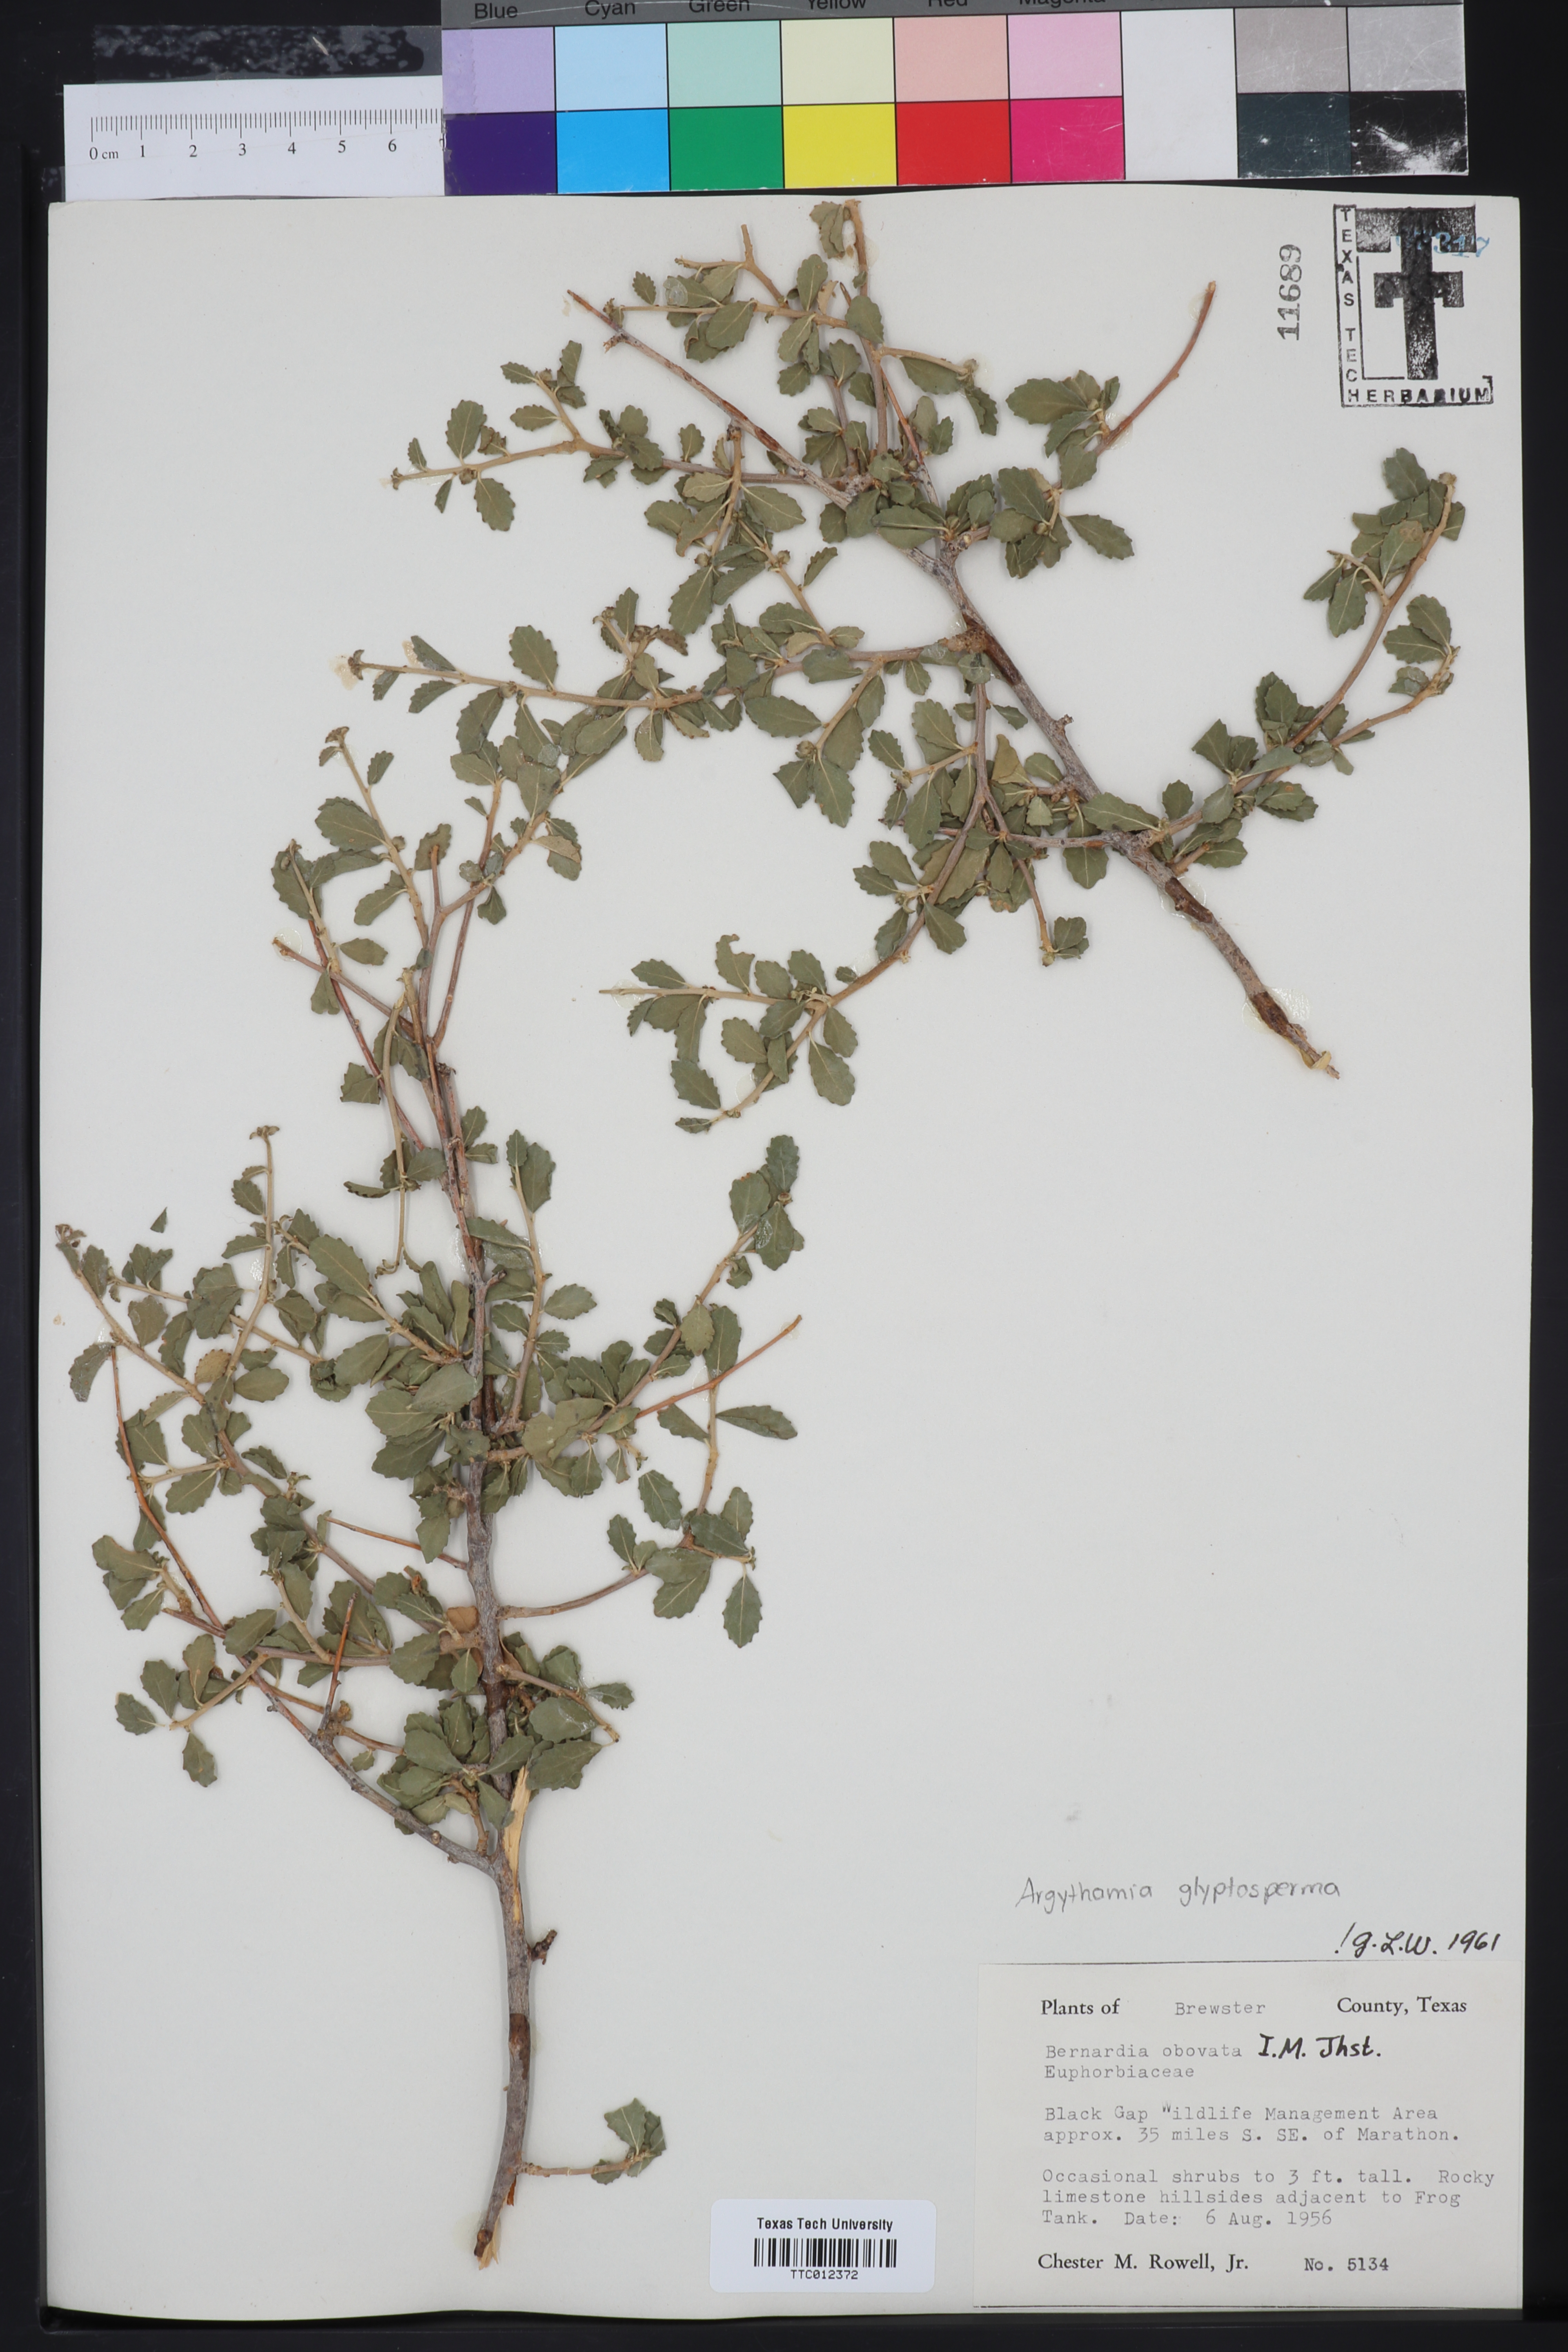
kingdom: Plantae
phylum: Tracheophyta
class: Magnoliopsida
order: Malpighiales
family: Euphorbiaceae
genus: Argythamnia
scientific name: Argythamnia
